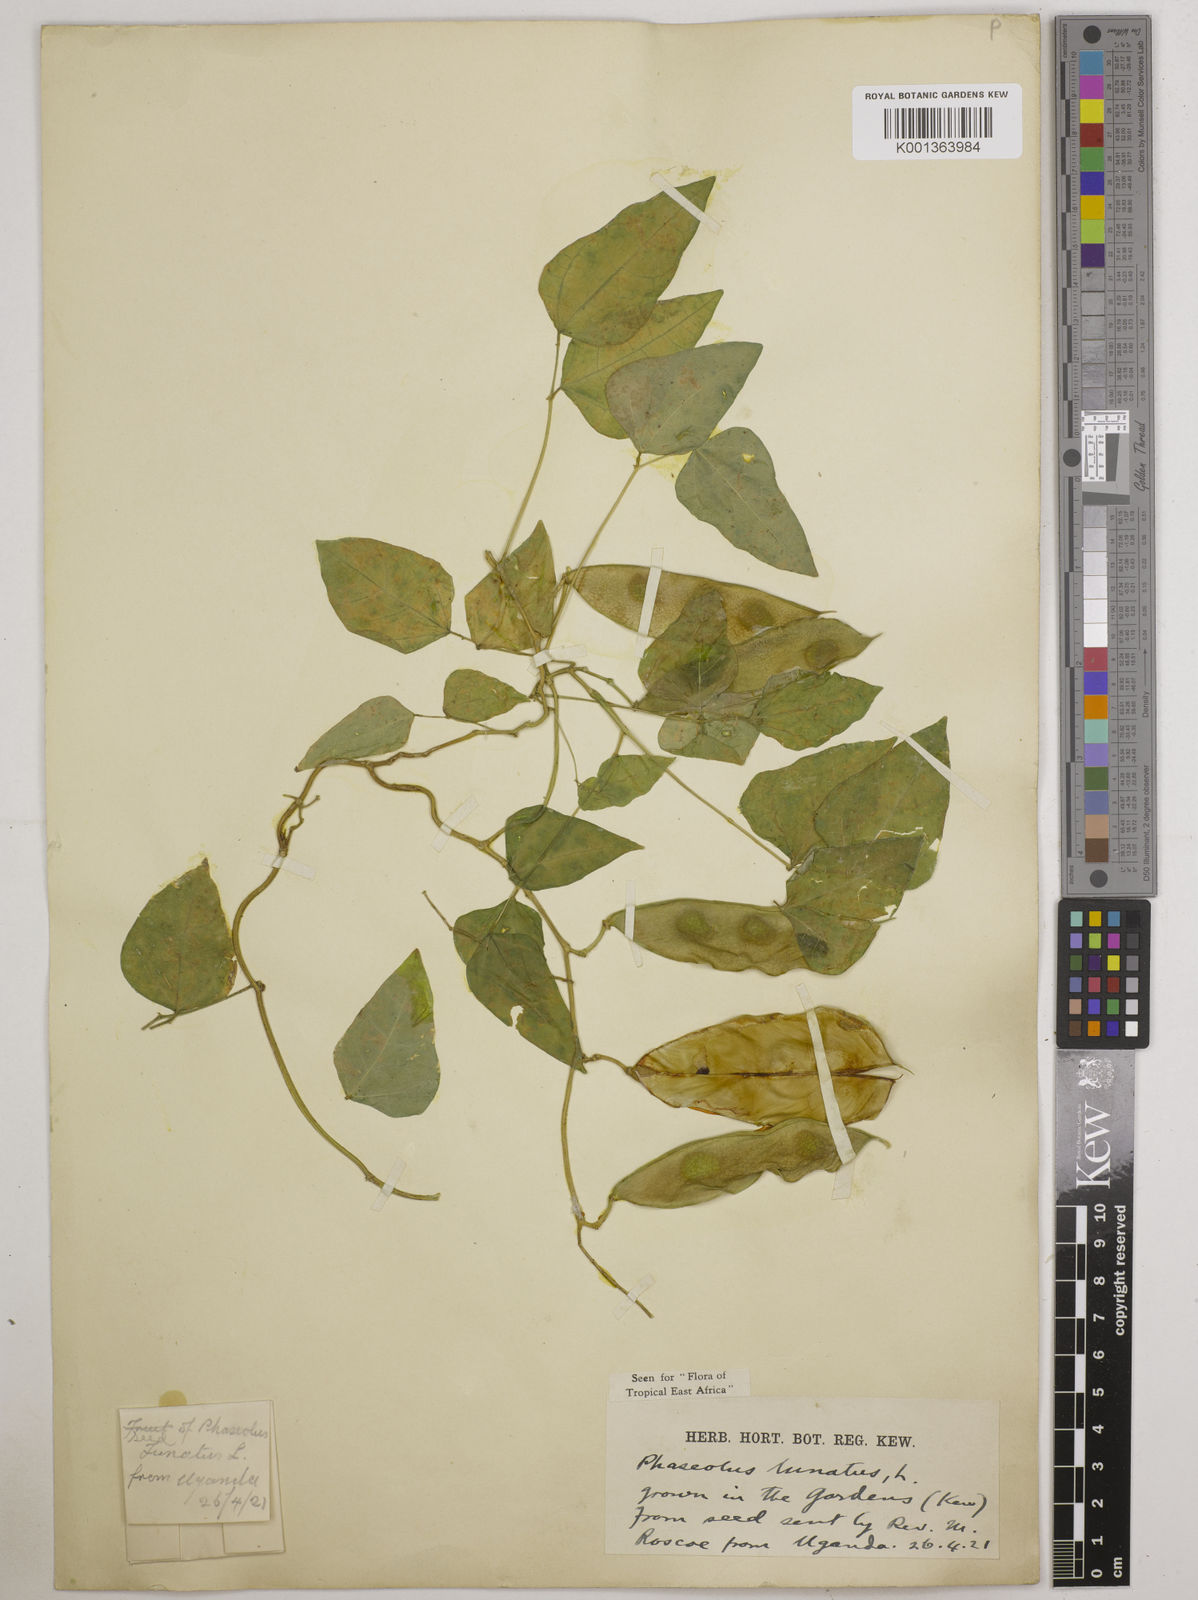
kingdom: Plantae
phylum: Tracheophyta
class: Magnoliopsida
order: Fabales
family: Fabaceae
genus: Phaseolus
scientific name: Phaseolus lunatus
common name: Sieva bean
